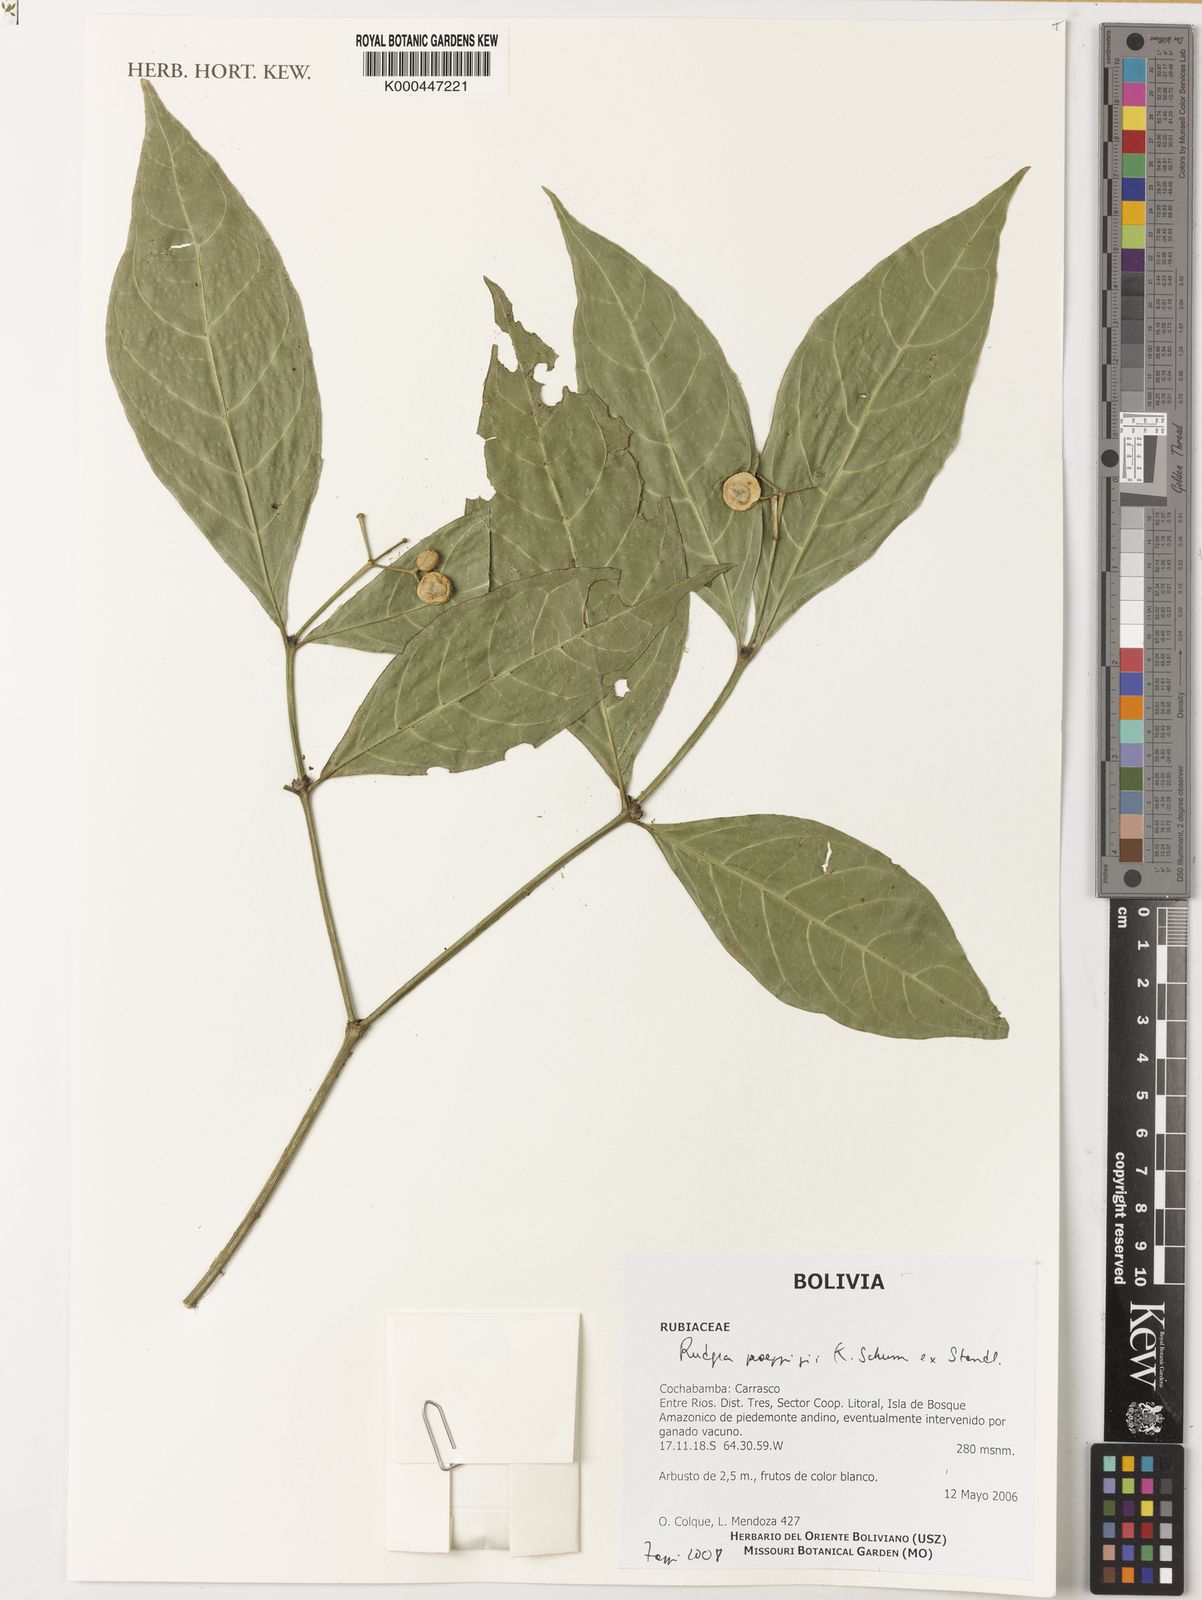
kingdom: Plantae
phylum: Tracheophyta
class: Magnoliopsida
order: Gentianales
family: Rubiaceae
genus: Rudgea
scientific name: Rudgea poeppigii
